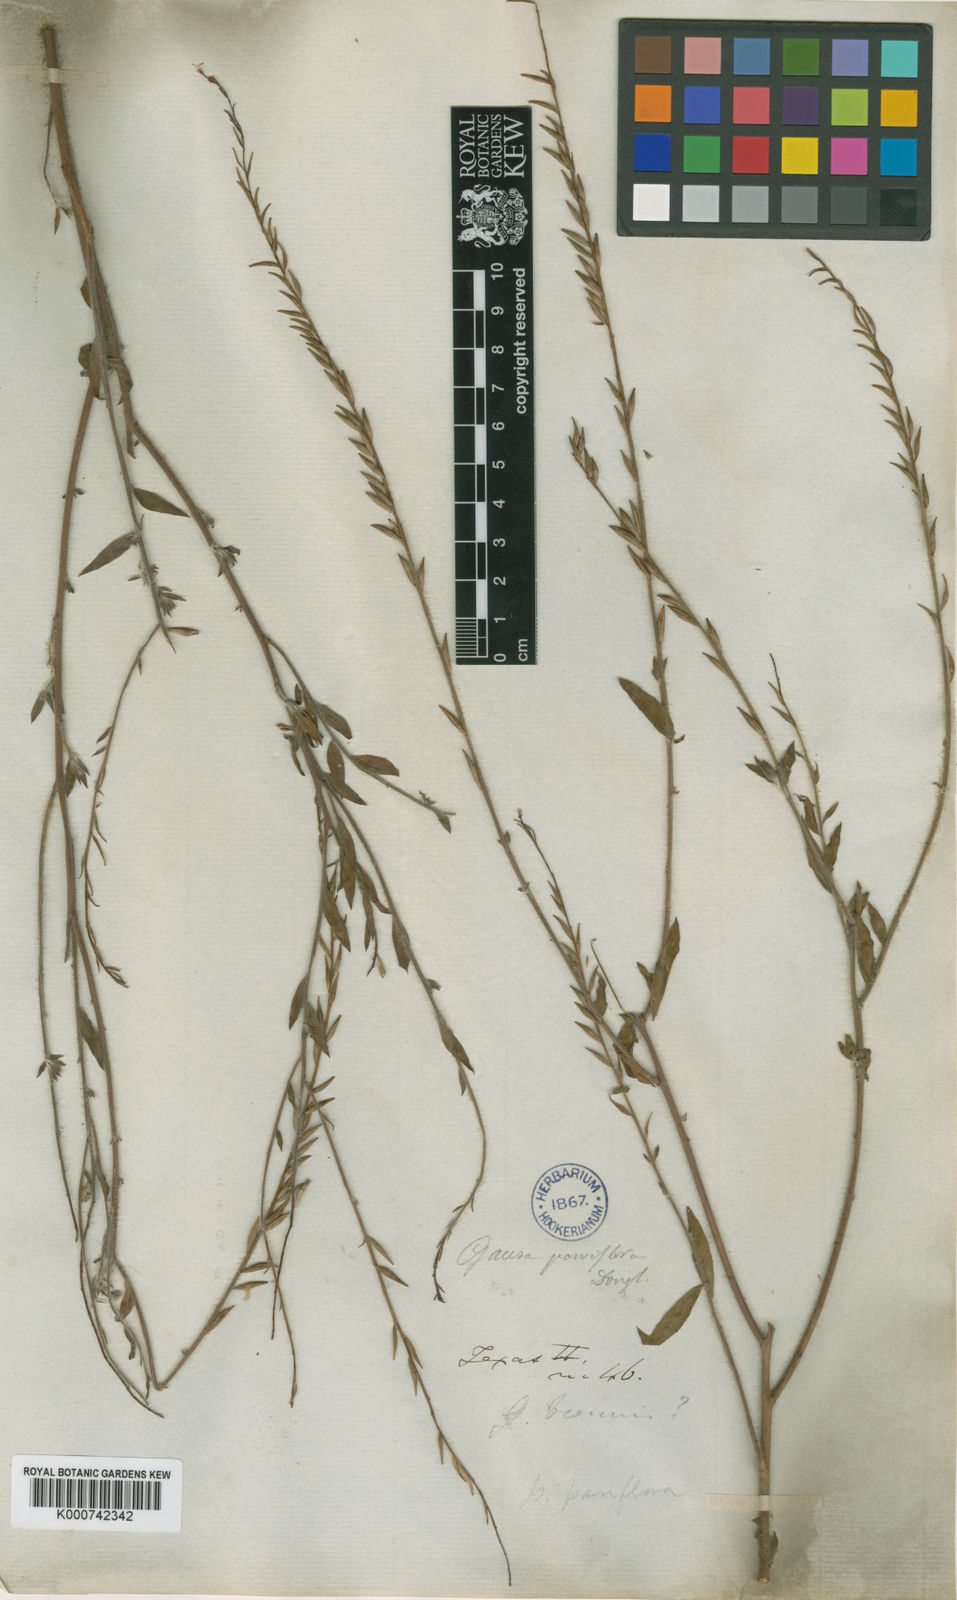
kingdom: Plantae
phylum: Tracheophyta
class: Magnoliopsida
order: Myrtales
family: Onagraceae
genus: Oenothera
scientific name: Oenothera
